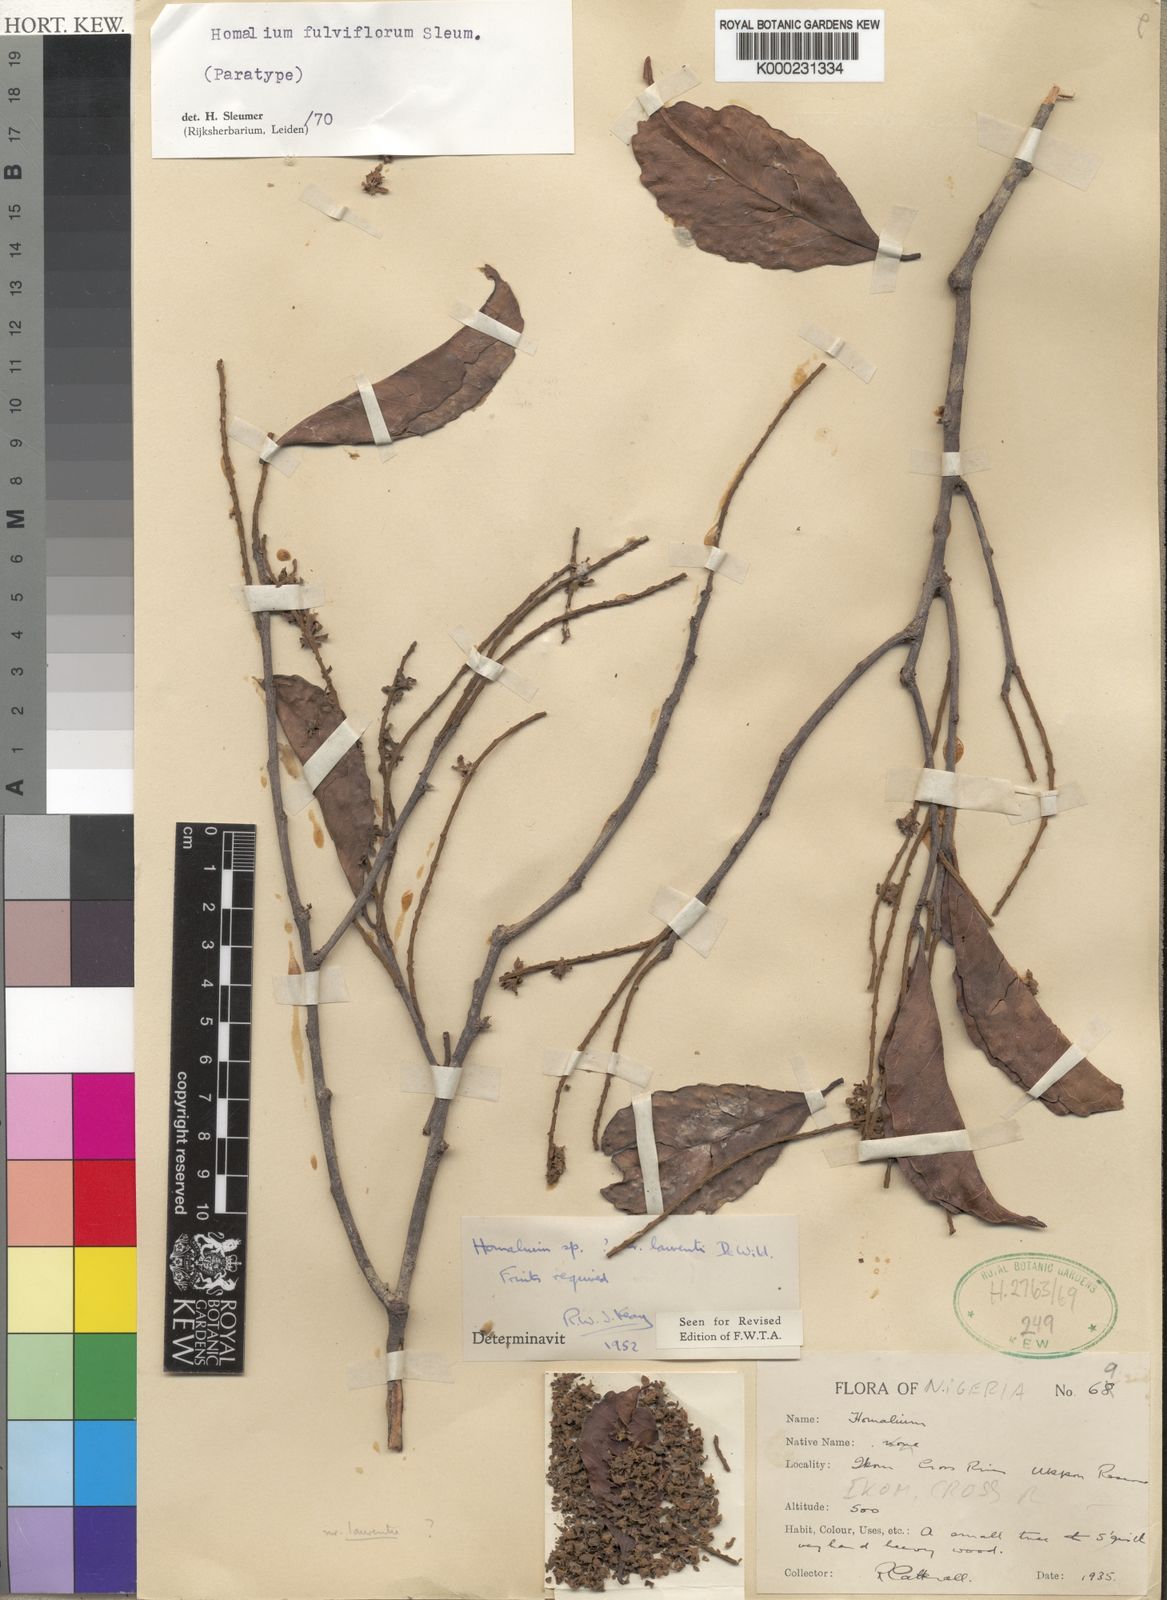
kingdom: Plantae
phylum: Tracheophyta
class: Magnoliopsida
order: Malpighiales
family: Salicaceae
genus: Homalium
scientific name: Homalium fulviflorum
